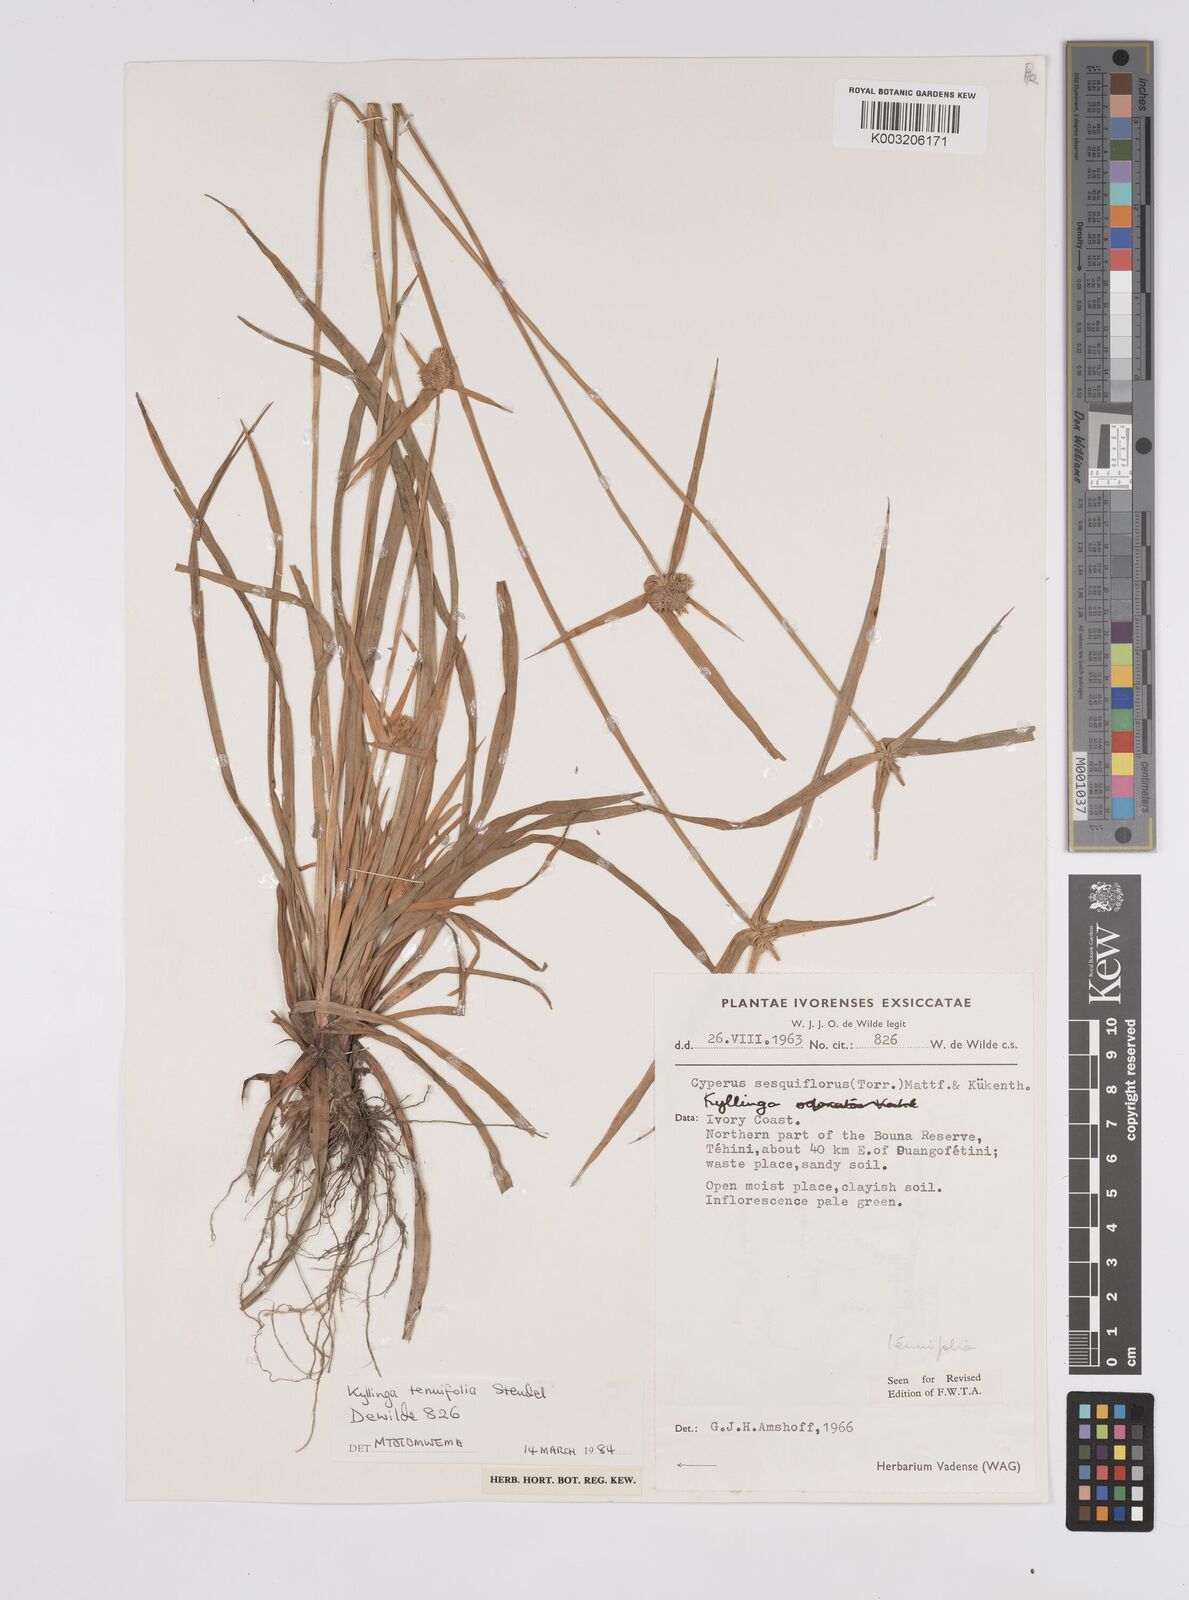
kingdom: Plantae
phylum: Tracheophyta
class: Liliopsida
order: Poales
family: Cyperaceae
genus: Cyperus
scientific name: Cyperus
